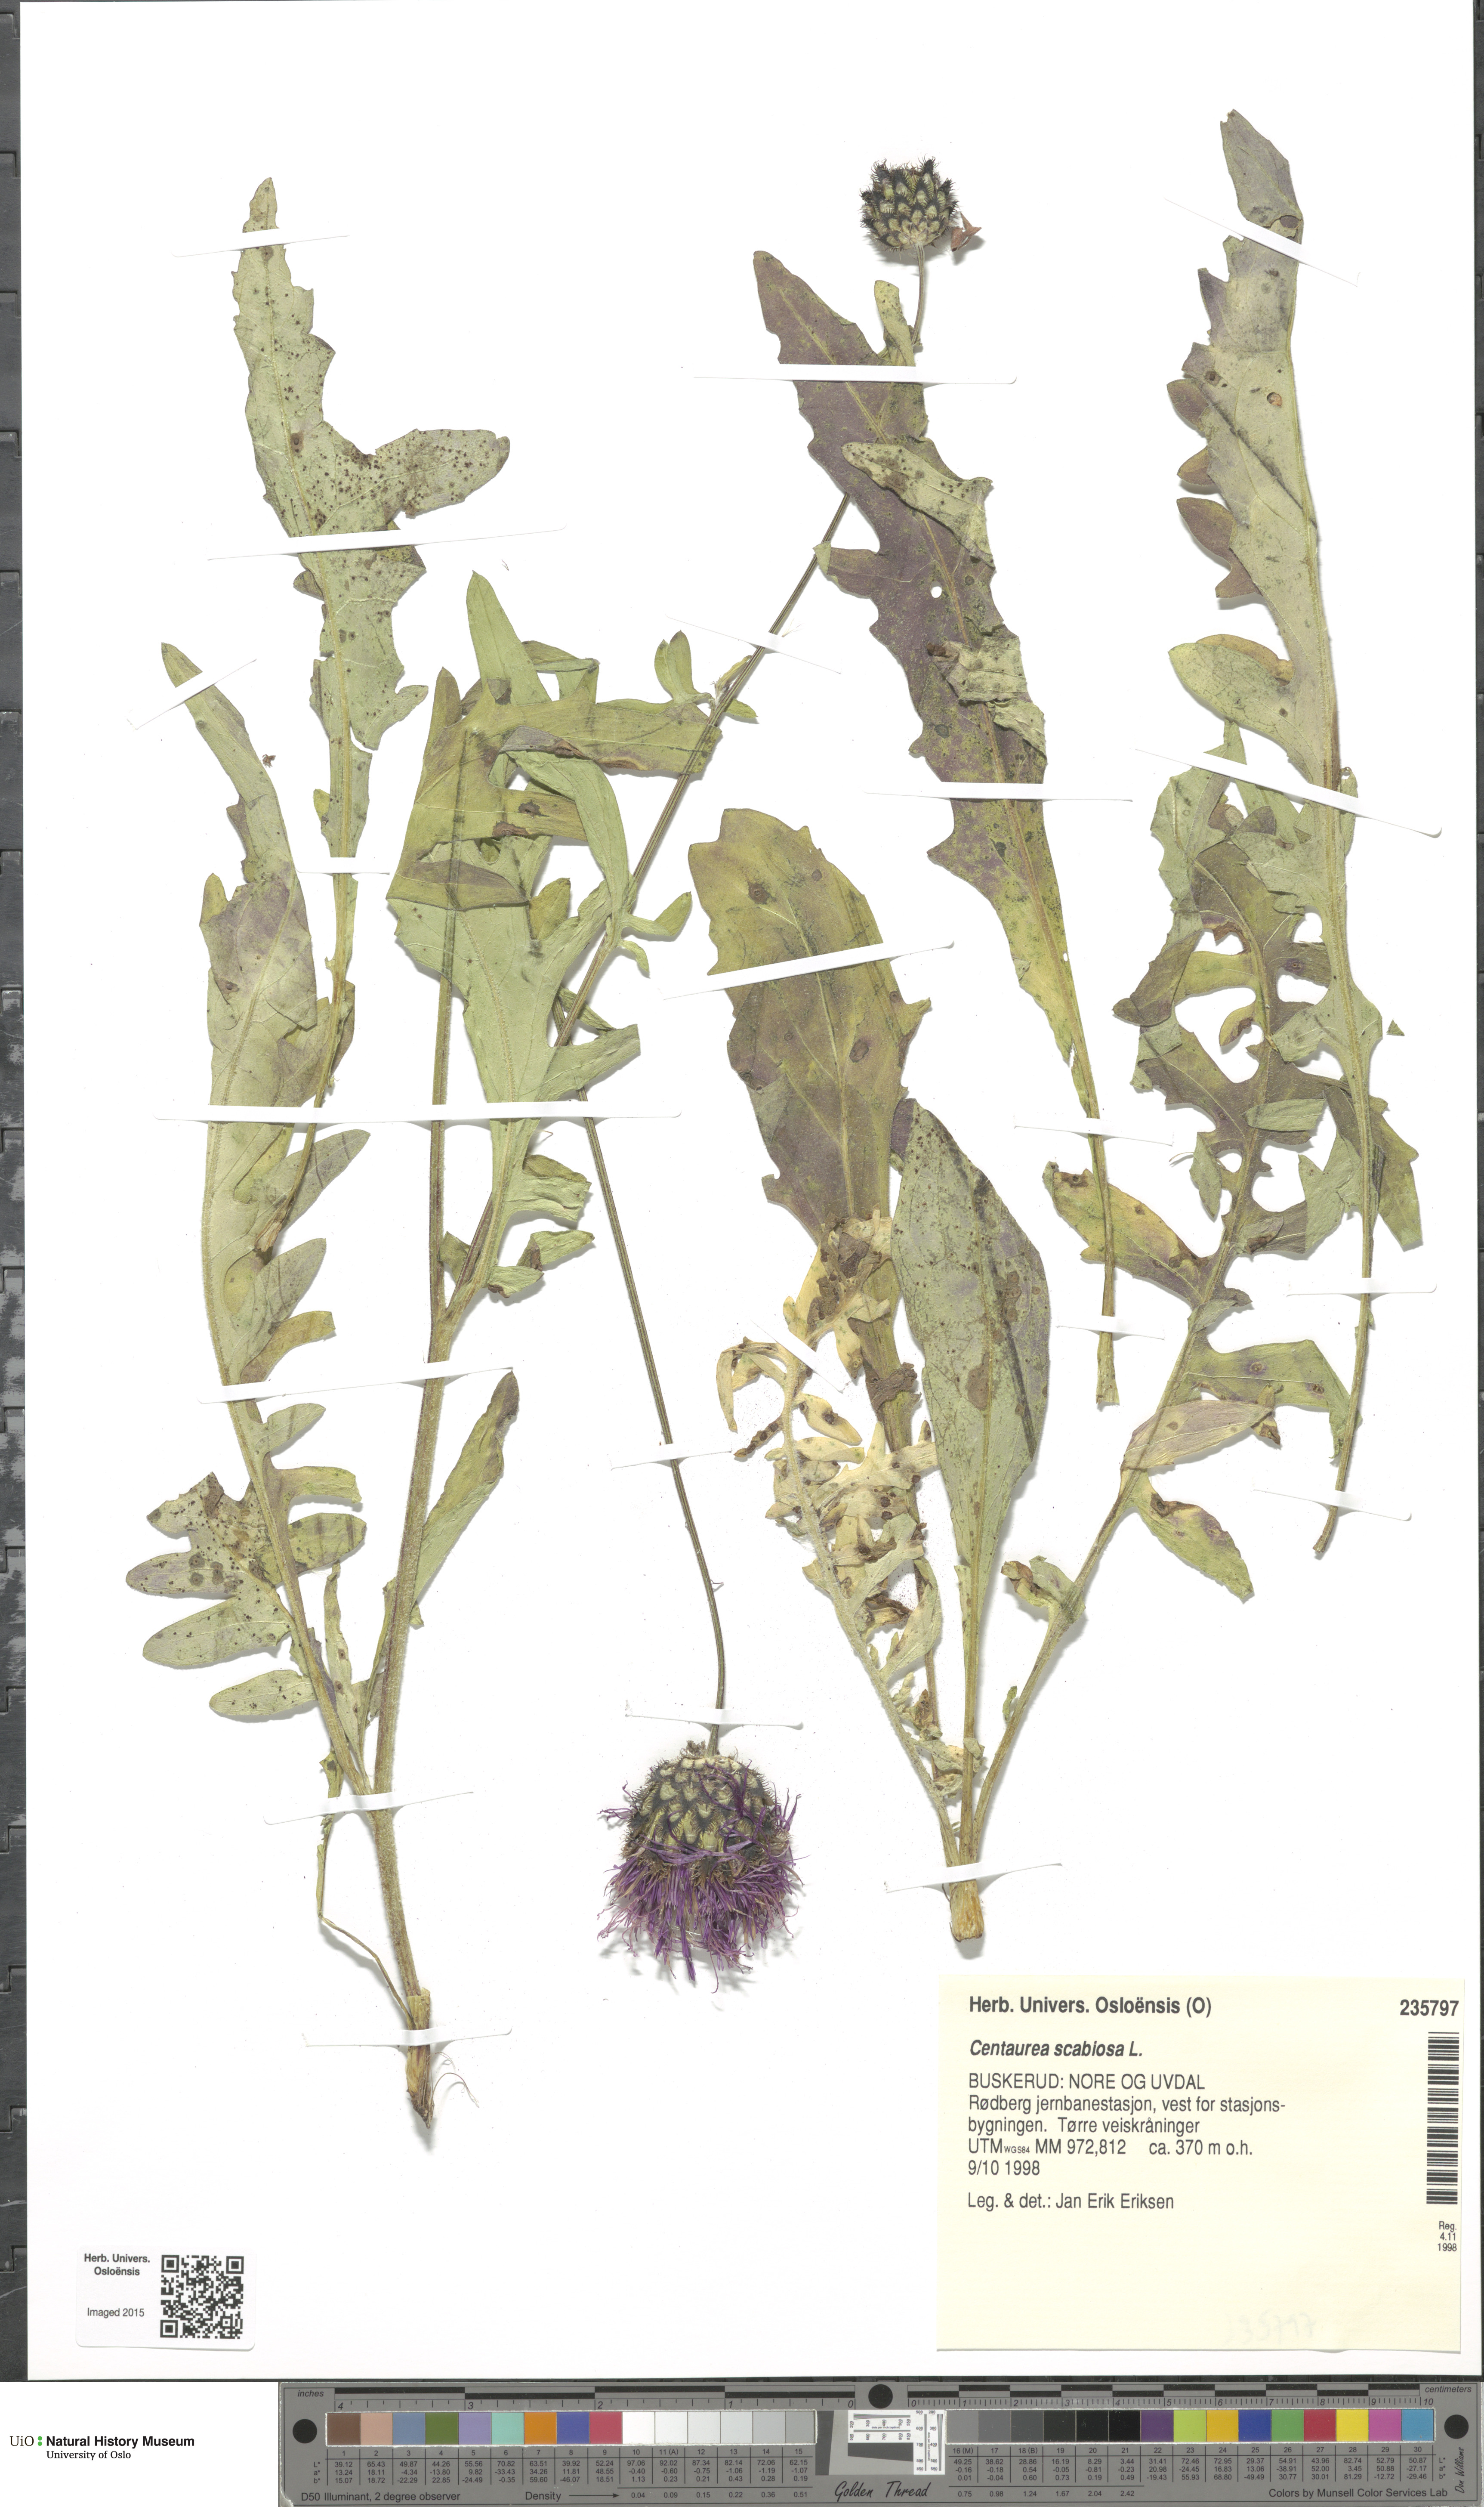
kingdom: Plantae
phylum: Tracheophyta
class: Magnoliopsida
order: Asterales
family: Asteraceae
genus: Centaurea
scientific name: Centaurea scabiosa
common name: Greater knapweed
